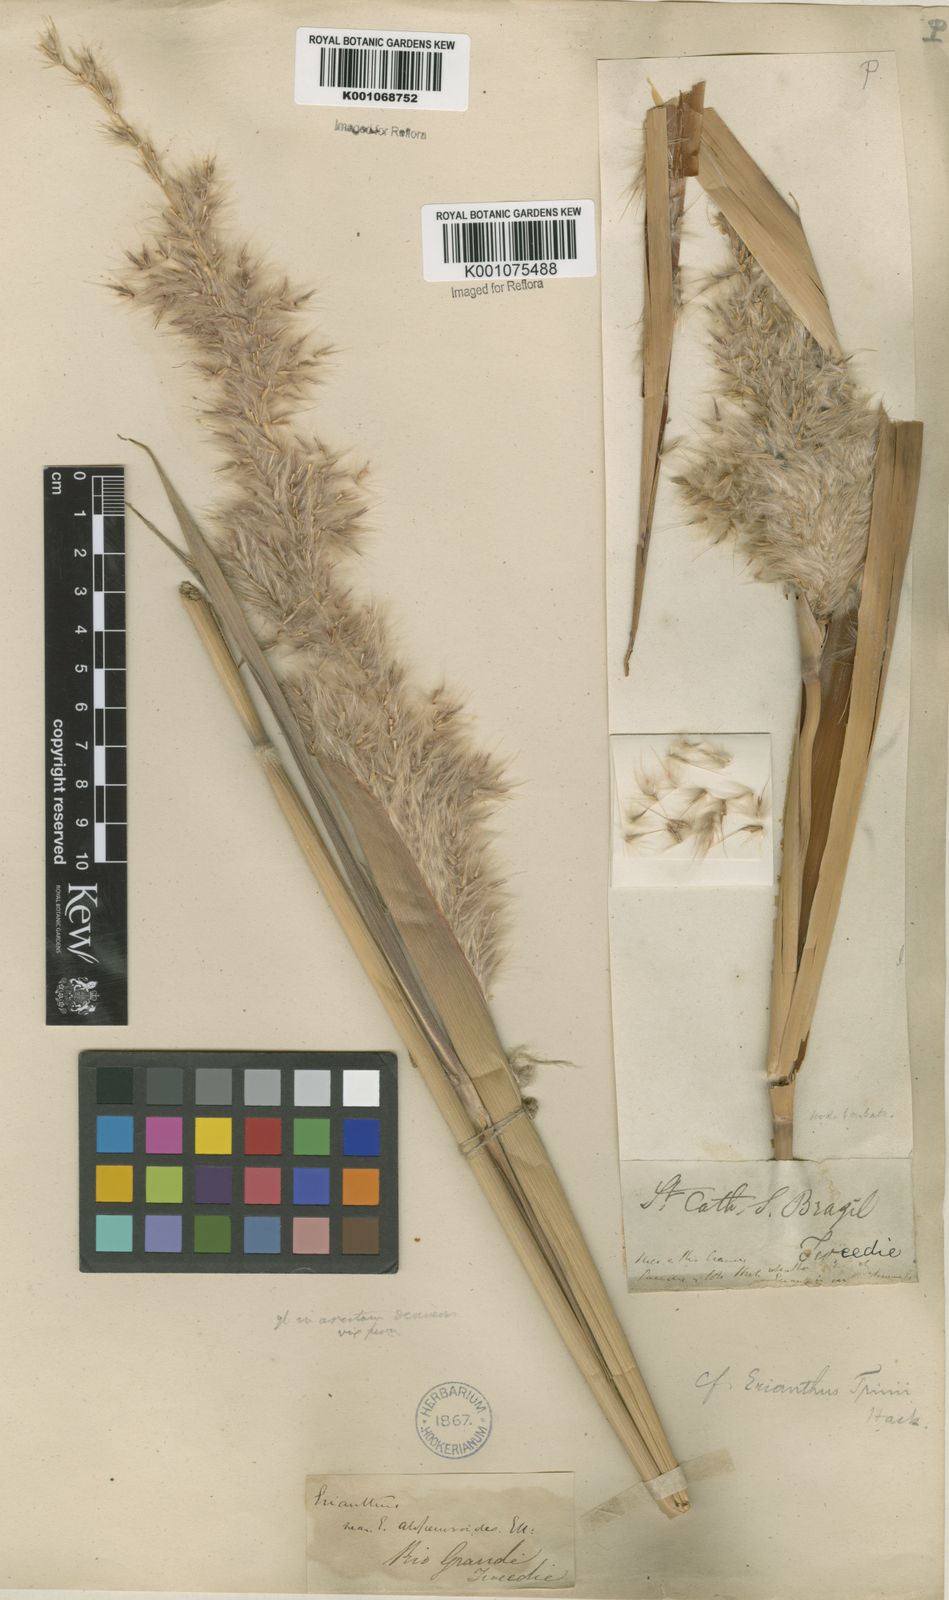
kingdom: Plantae
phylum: Tracheophyta
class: Liliopsida
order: Poales
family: Poaceae
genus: Erianthus
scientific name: Erianthus trinii
